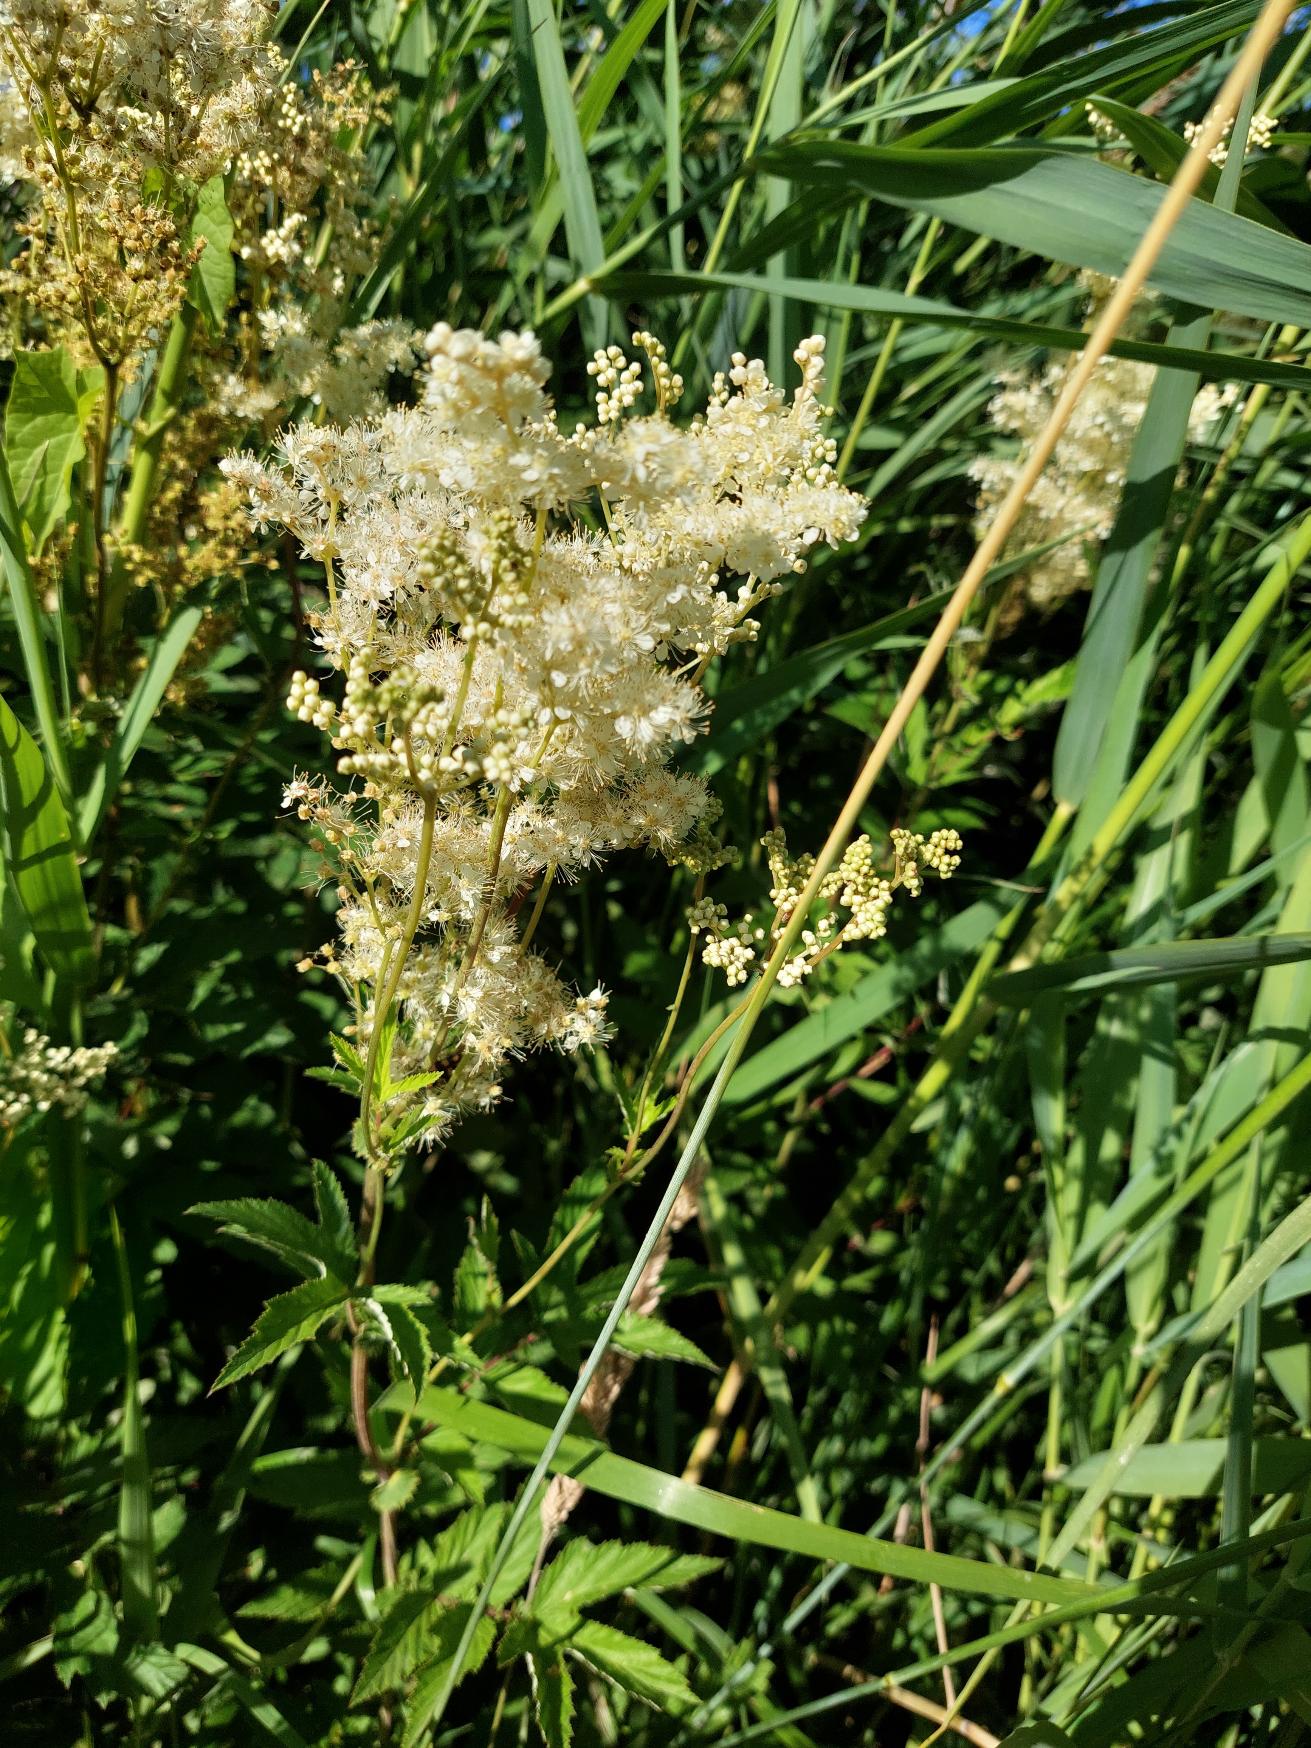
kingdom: Plantae
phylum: Tracheophyta
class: Magnoliopsida
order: Rosales
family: Rosaceae
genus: Filipendula
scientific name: Filipendula ulmaria
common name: Almindelig mjødurt
